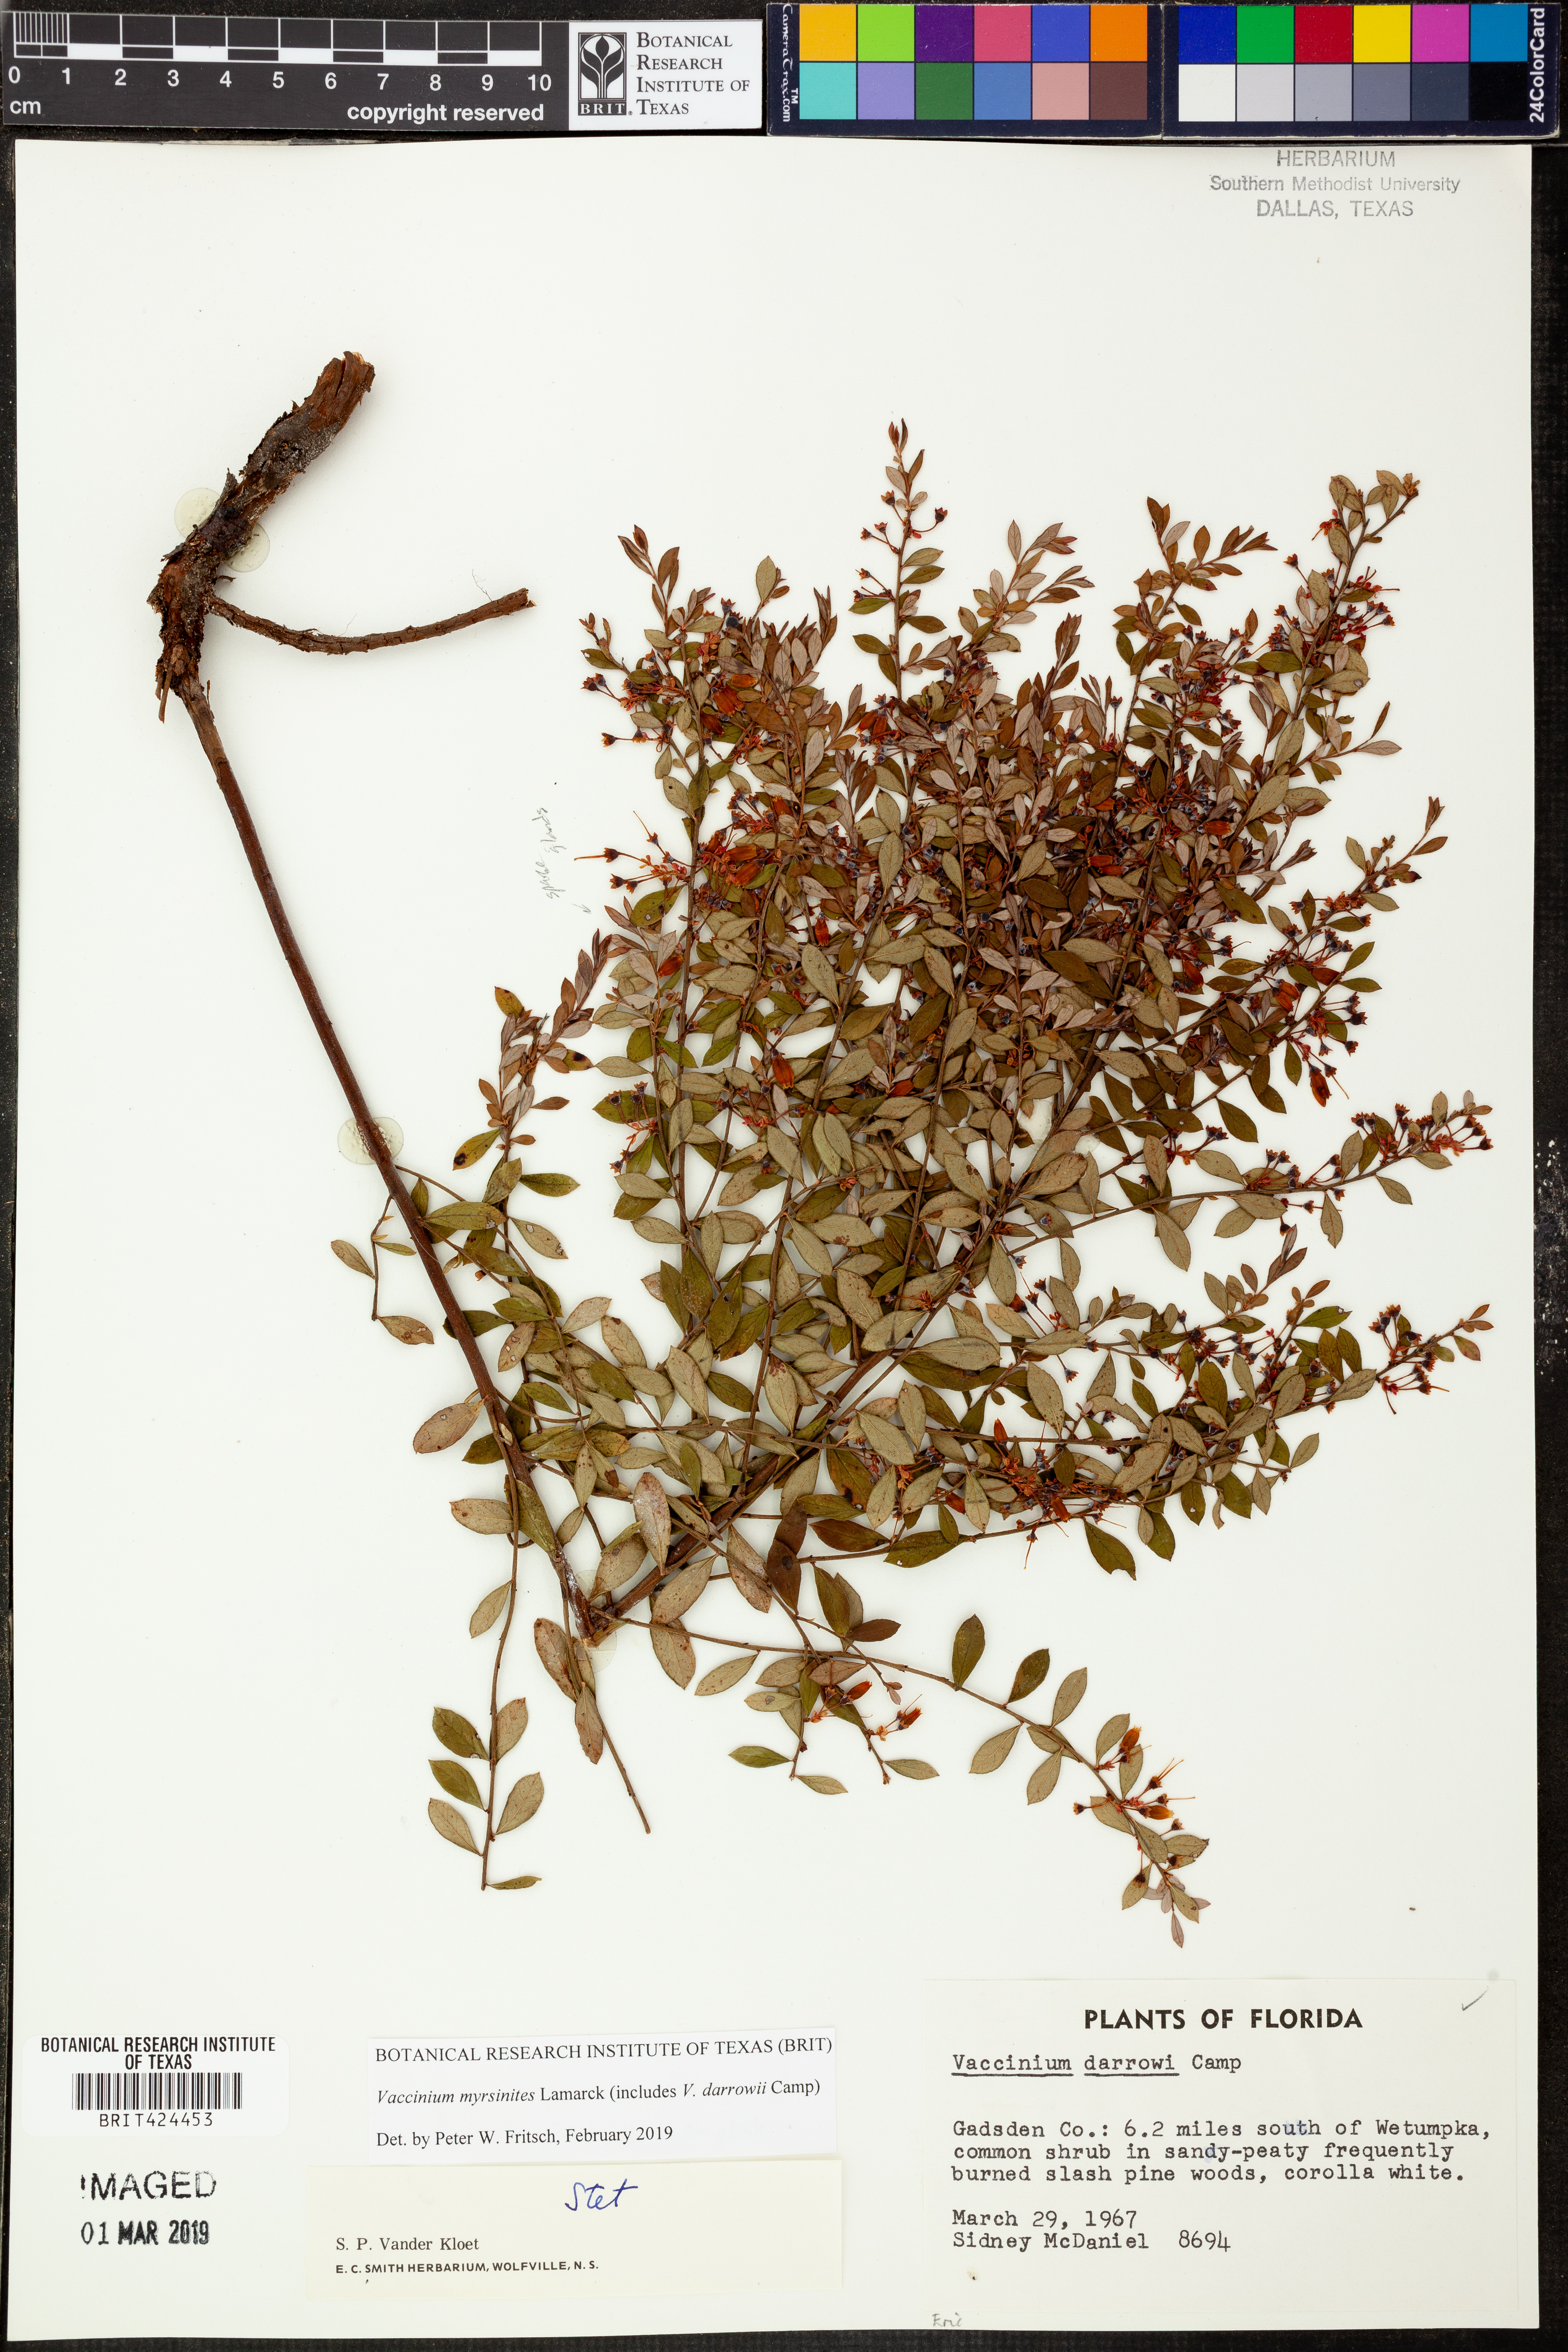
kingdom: Plantae
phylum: Tracheophyta
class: Magnoliopsida
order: Ericales
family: Ericaceae
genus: Vaccinium
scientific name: Vaccinium myrsinites
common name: Evergreen blueberry
